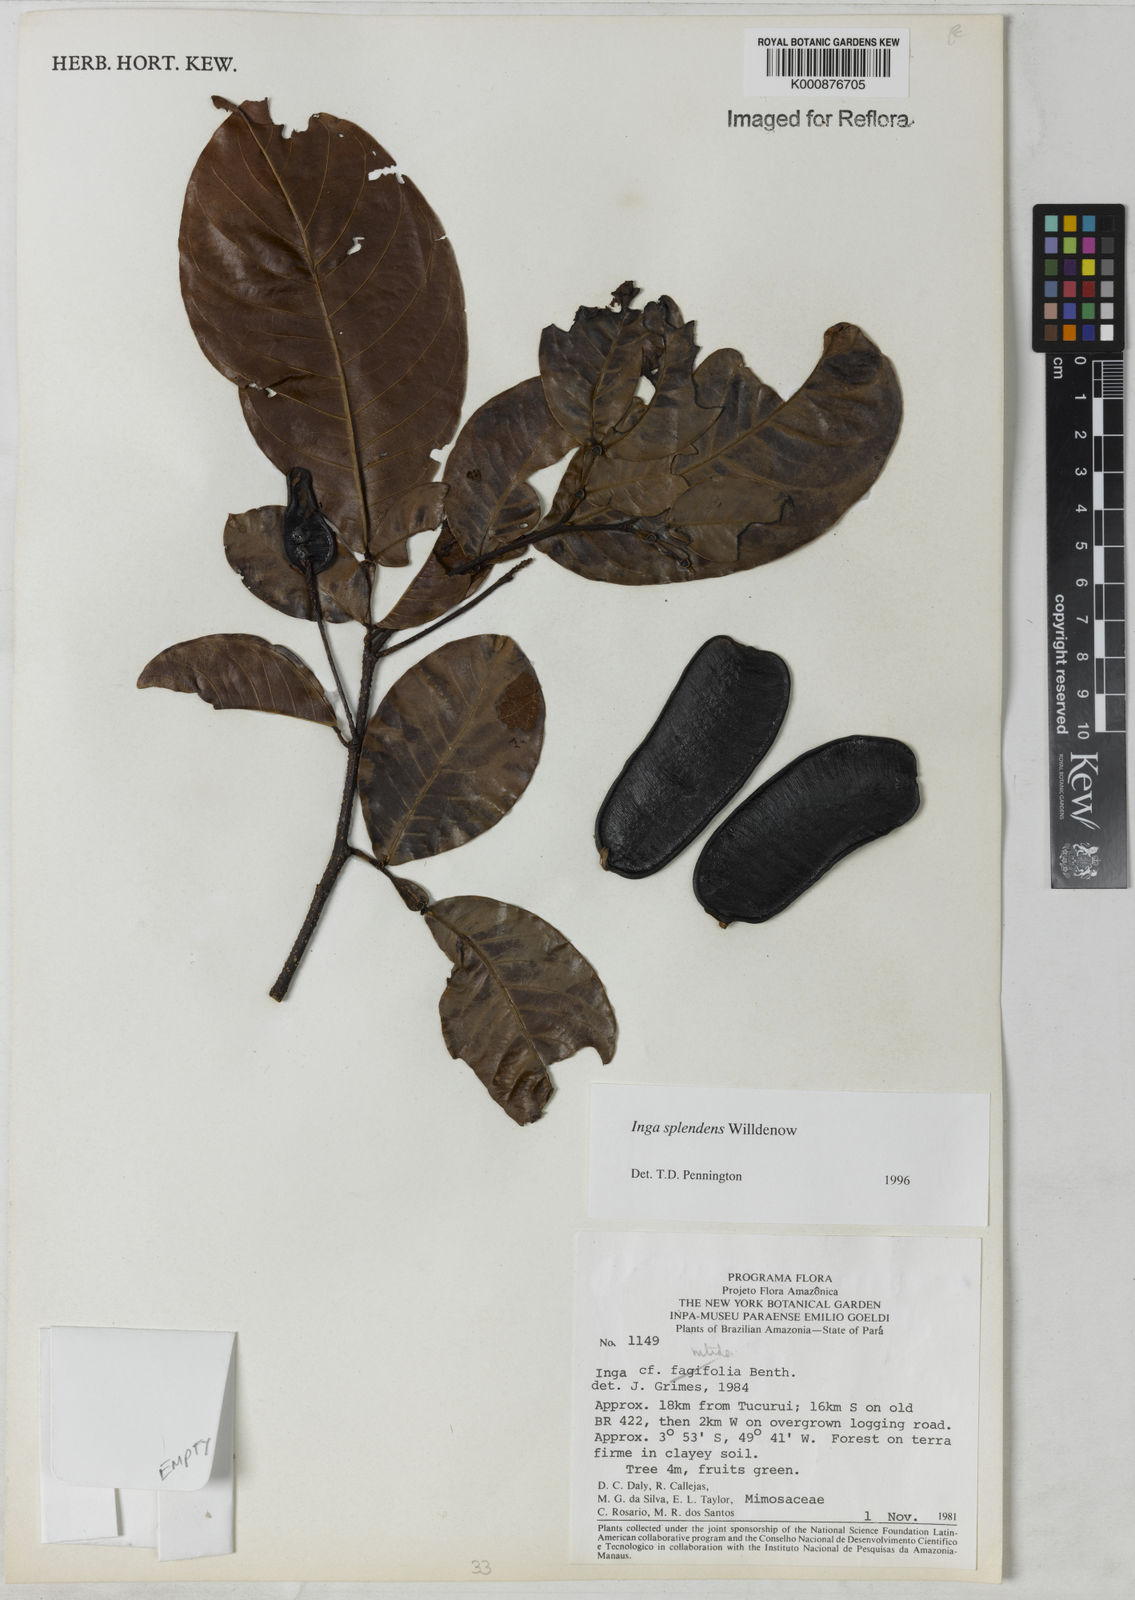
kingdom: Plantae
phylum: Tracheophyta
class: Magnoliopsida
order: Fabales
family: Fabaceae
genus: Inga
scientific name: Inga splendens
